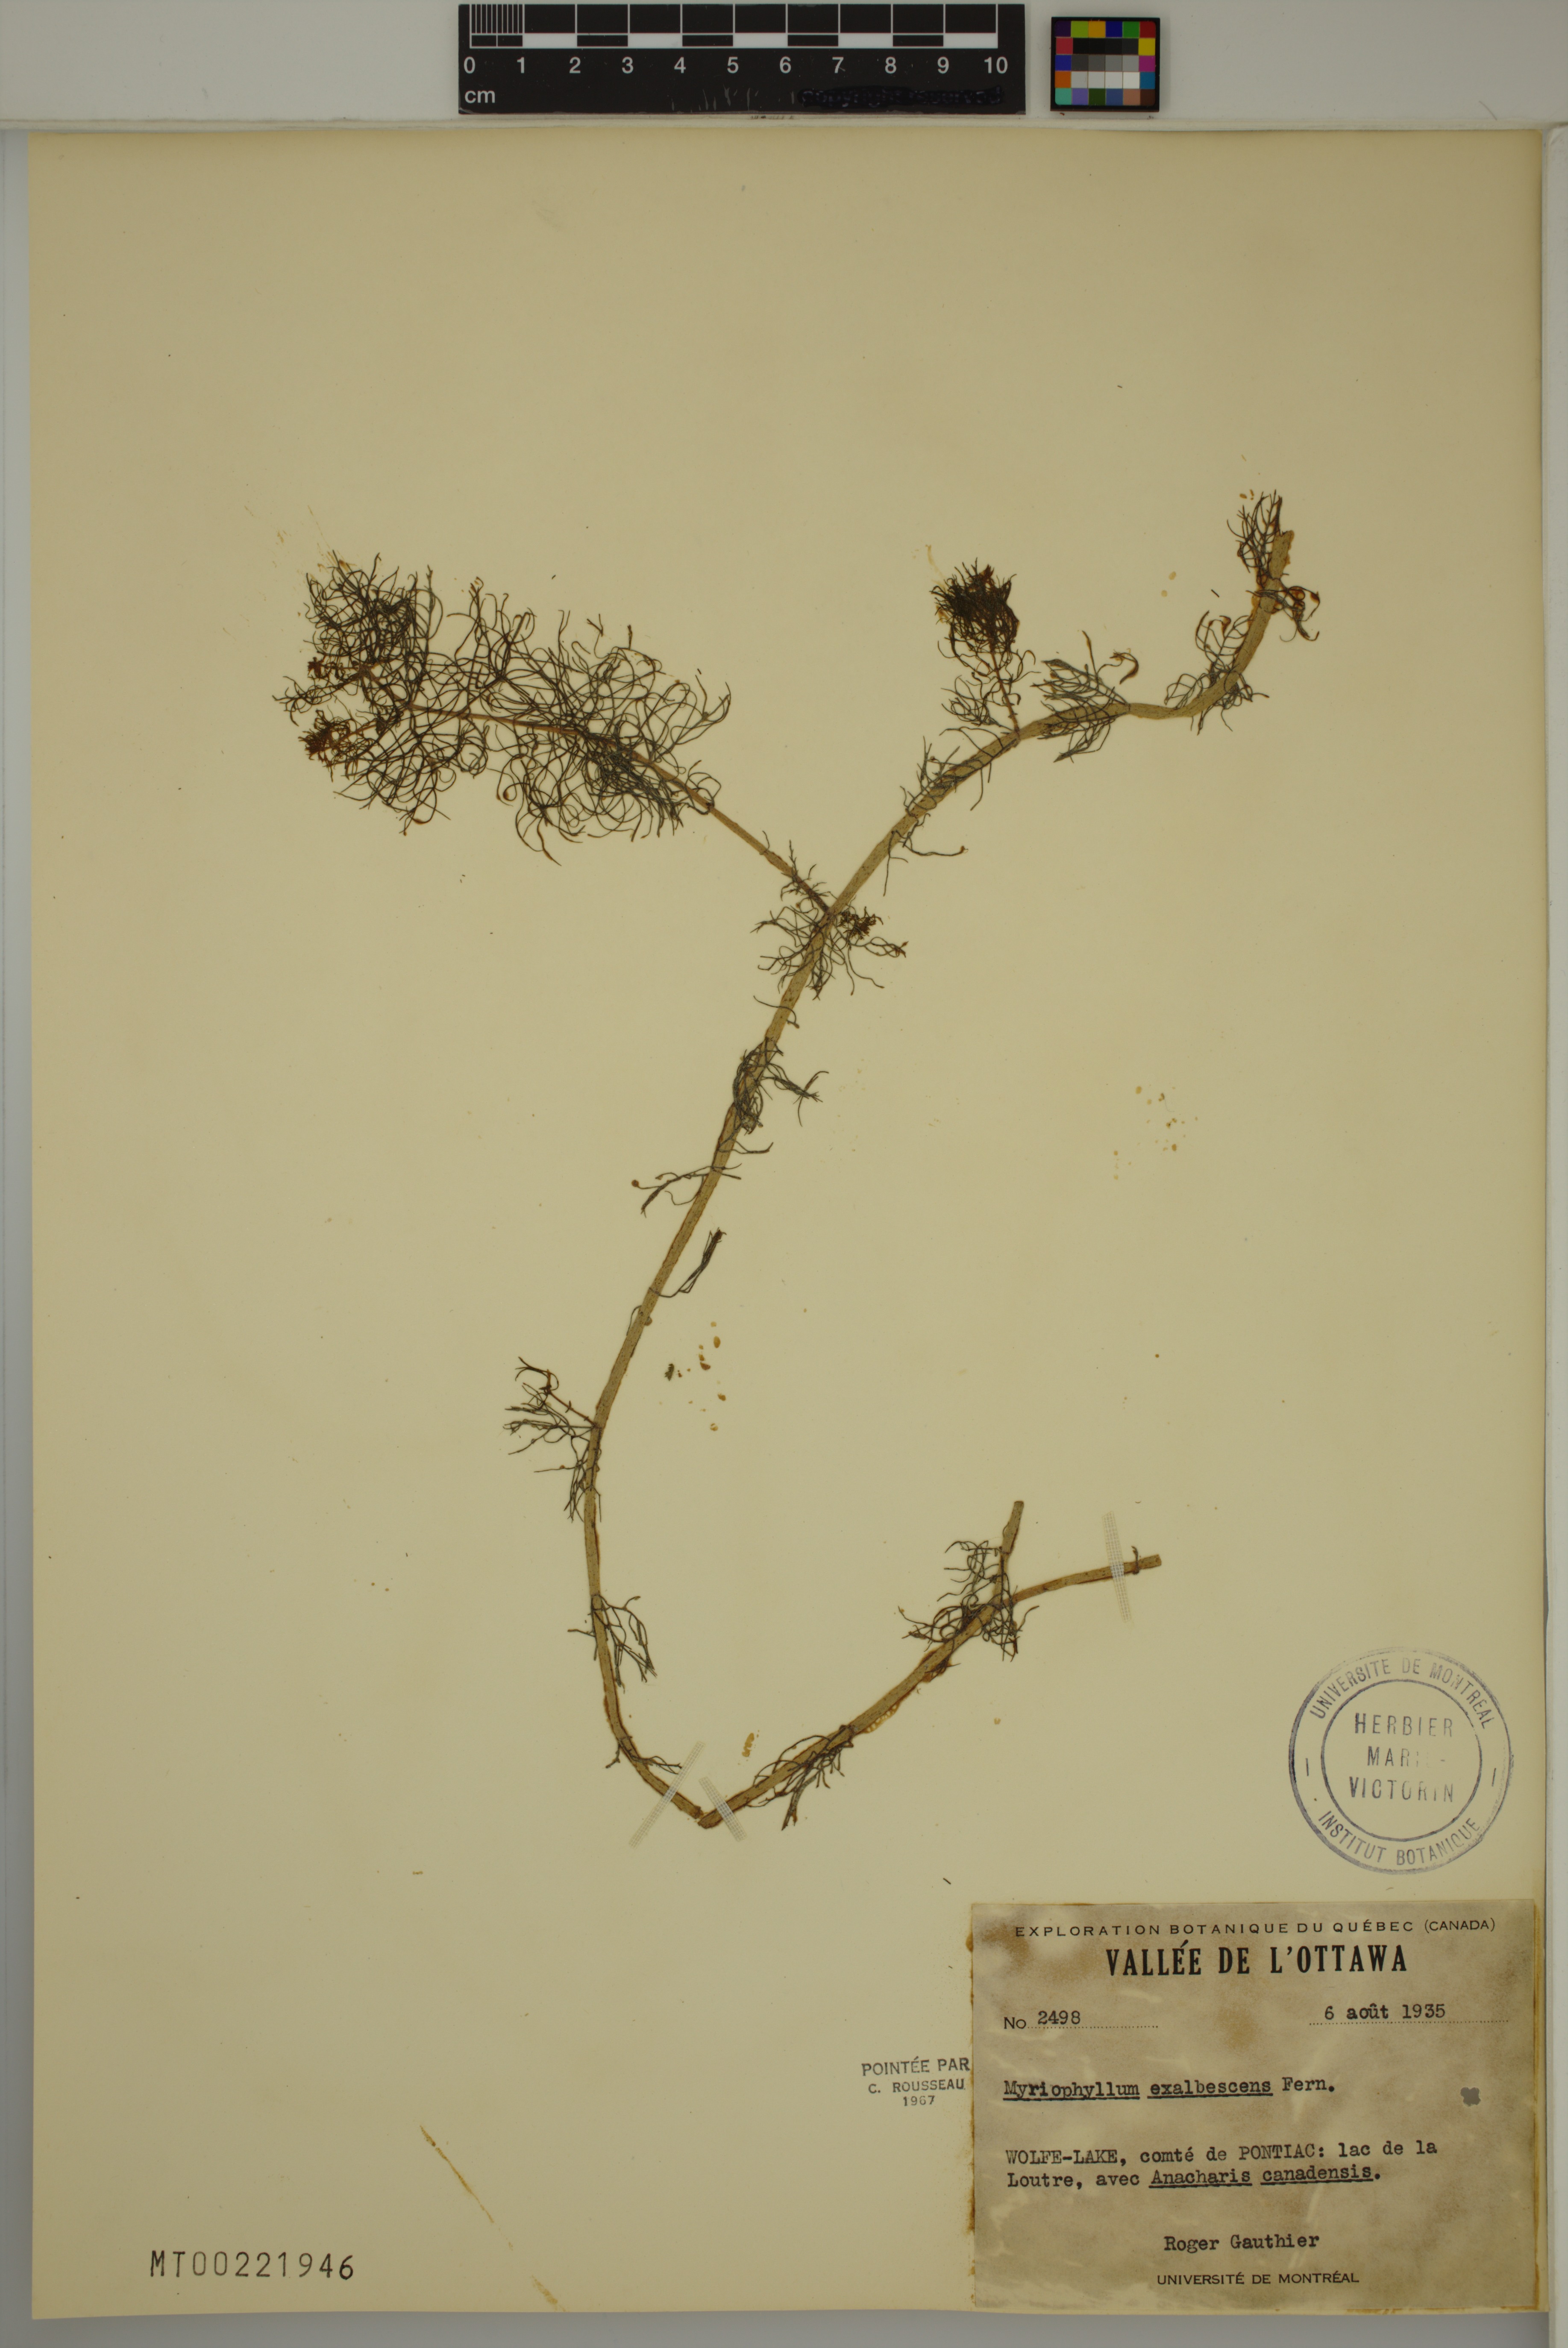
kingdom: Plantae
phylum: Tracheophyta
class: Magnoliopsida
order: Saxifragales
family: Haloragaceae
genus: Myriophyllum
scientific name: Myriophyllum sibiricum
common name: Siberian water-milfoil
